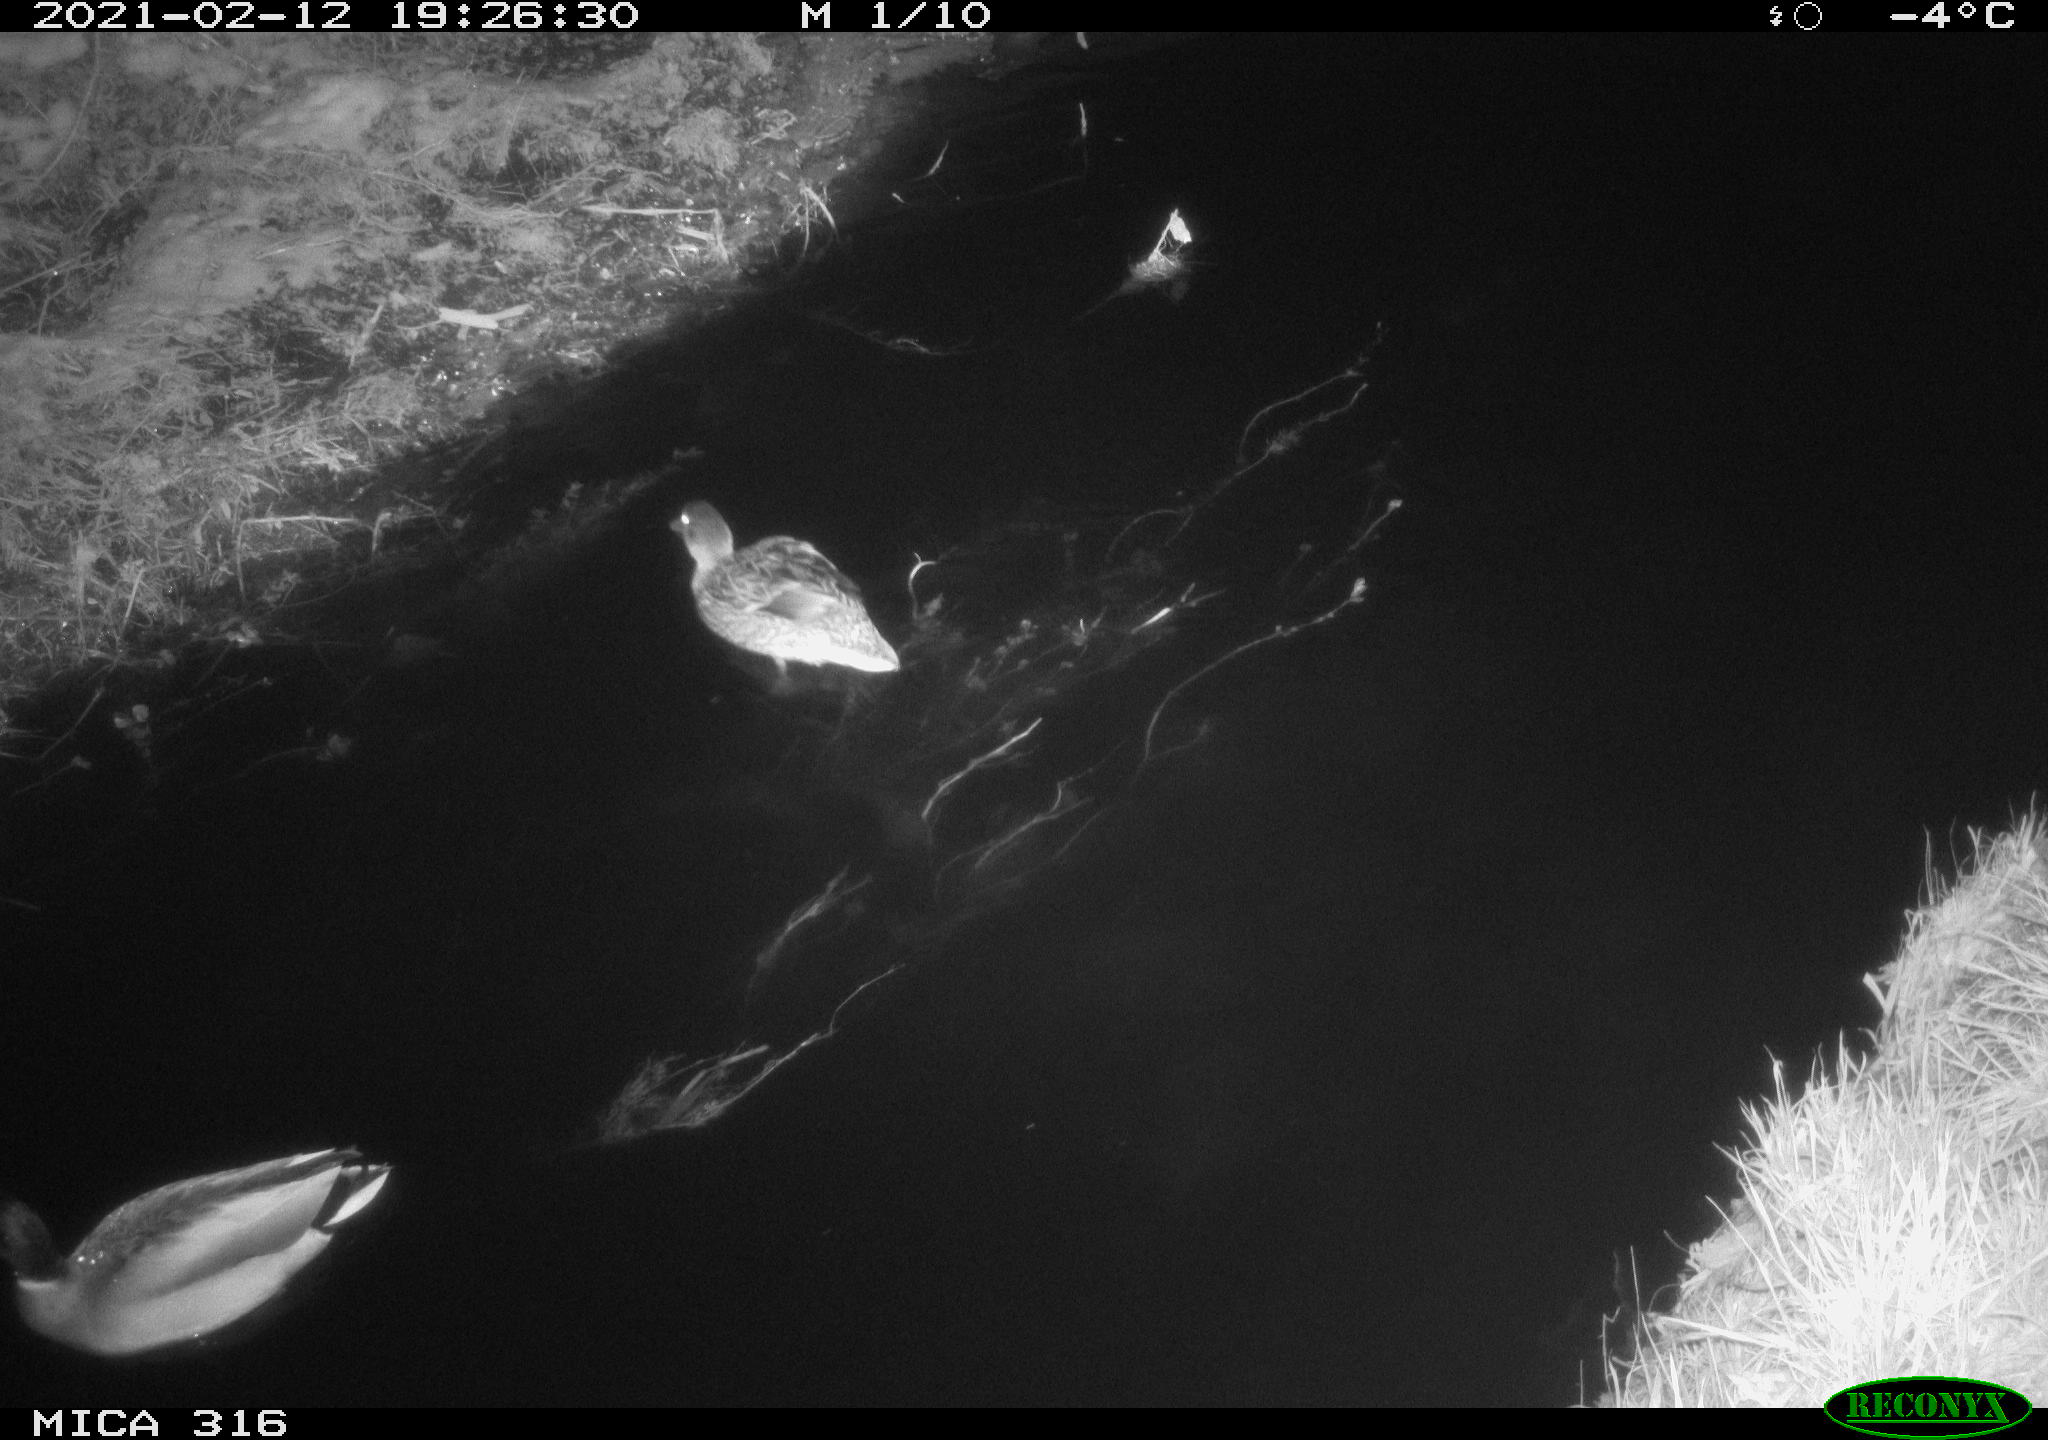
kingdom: Animalia
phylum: Chordata
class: Aves
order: Anseriformes
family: Anatidae
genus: Anas
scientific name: Anas platyrhynchos
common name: Mallard
